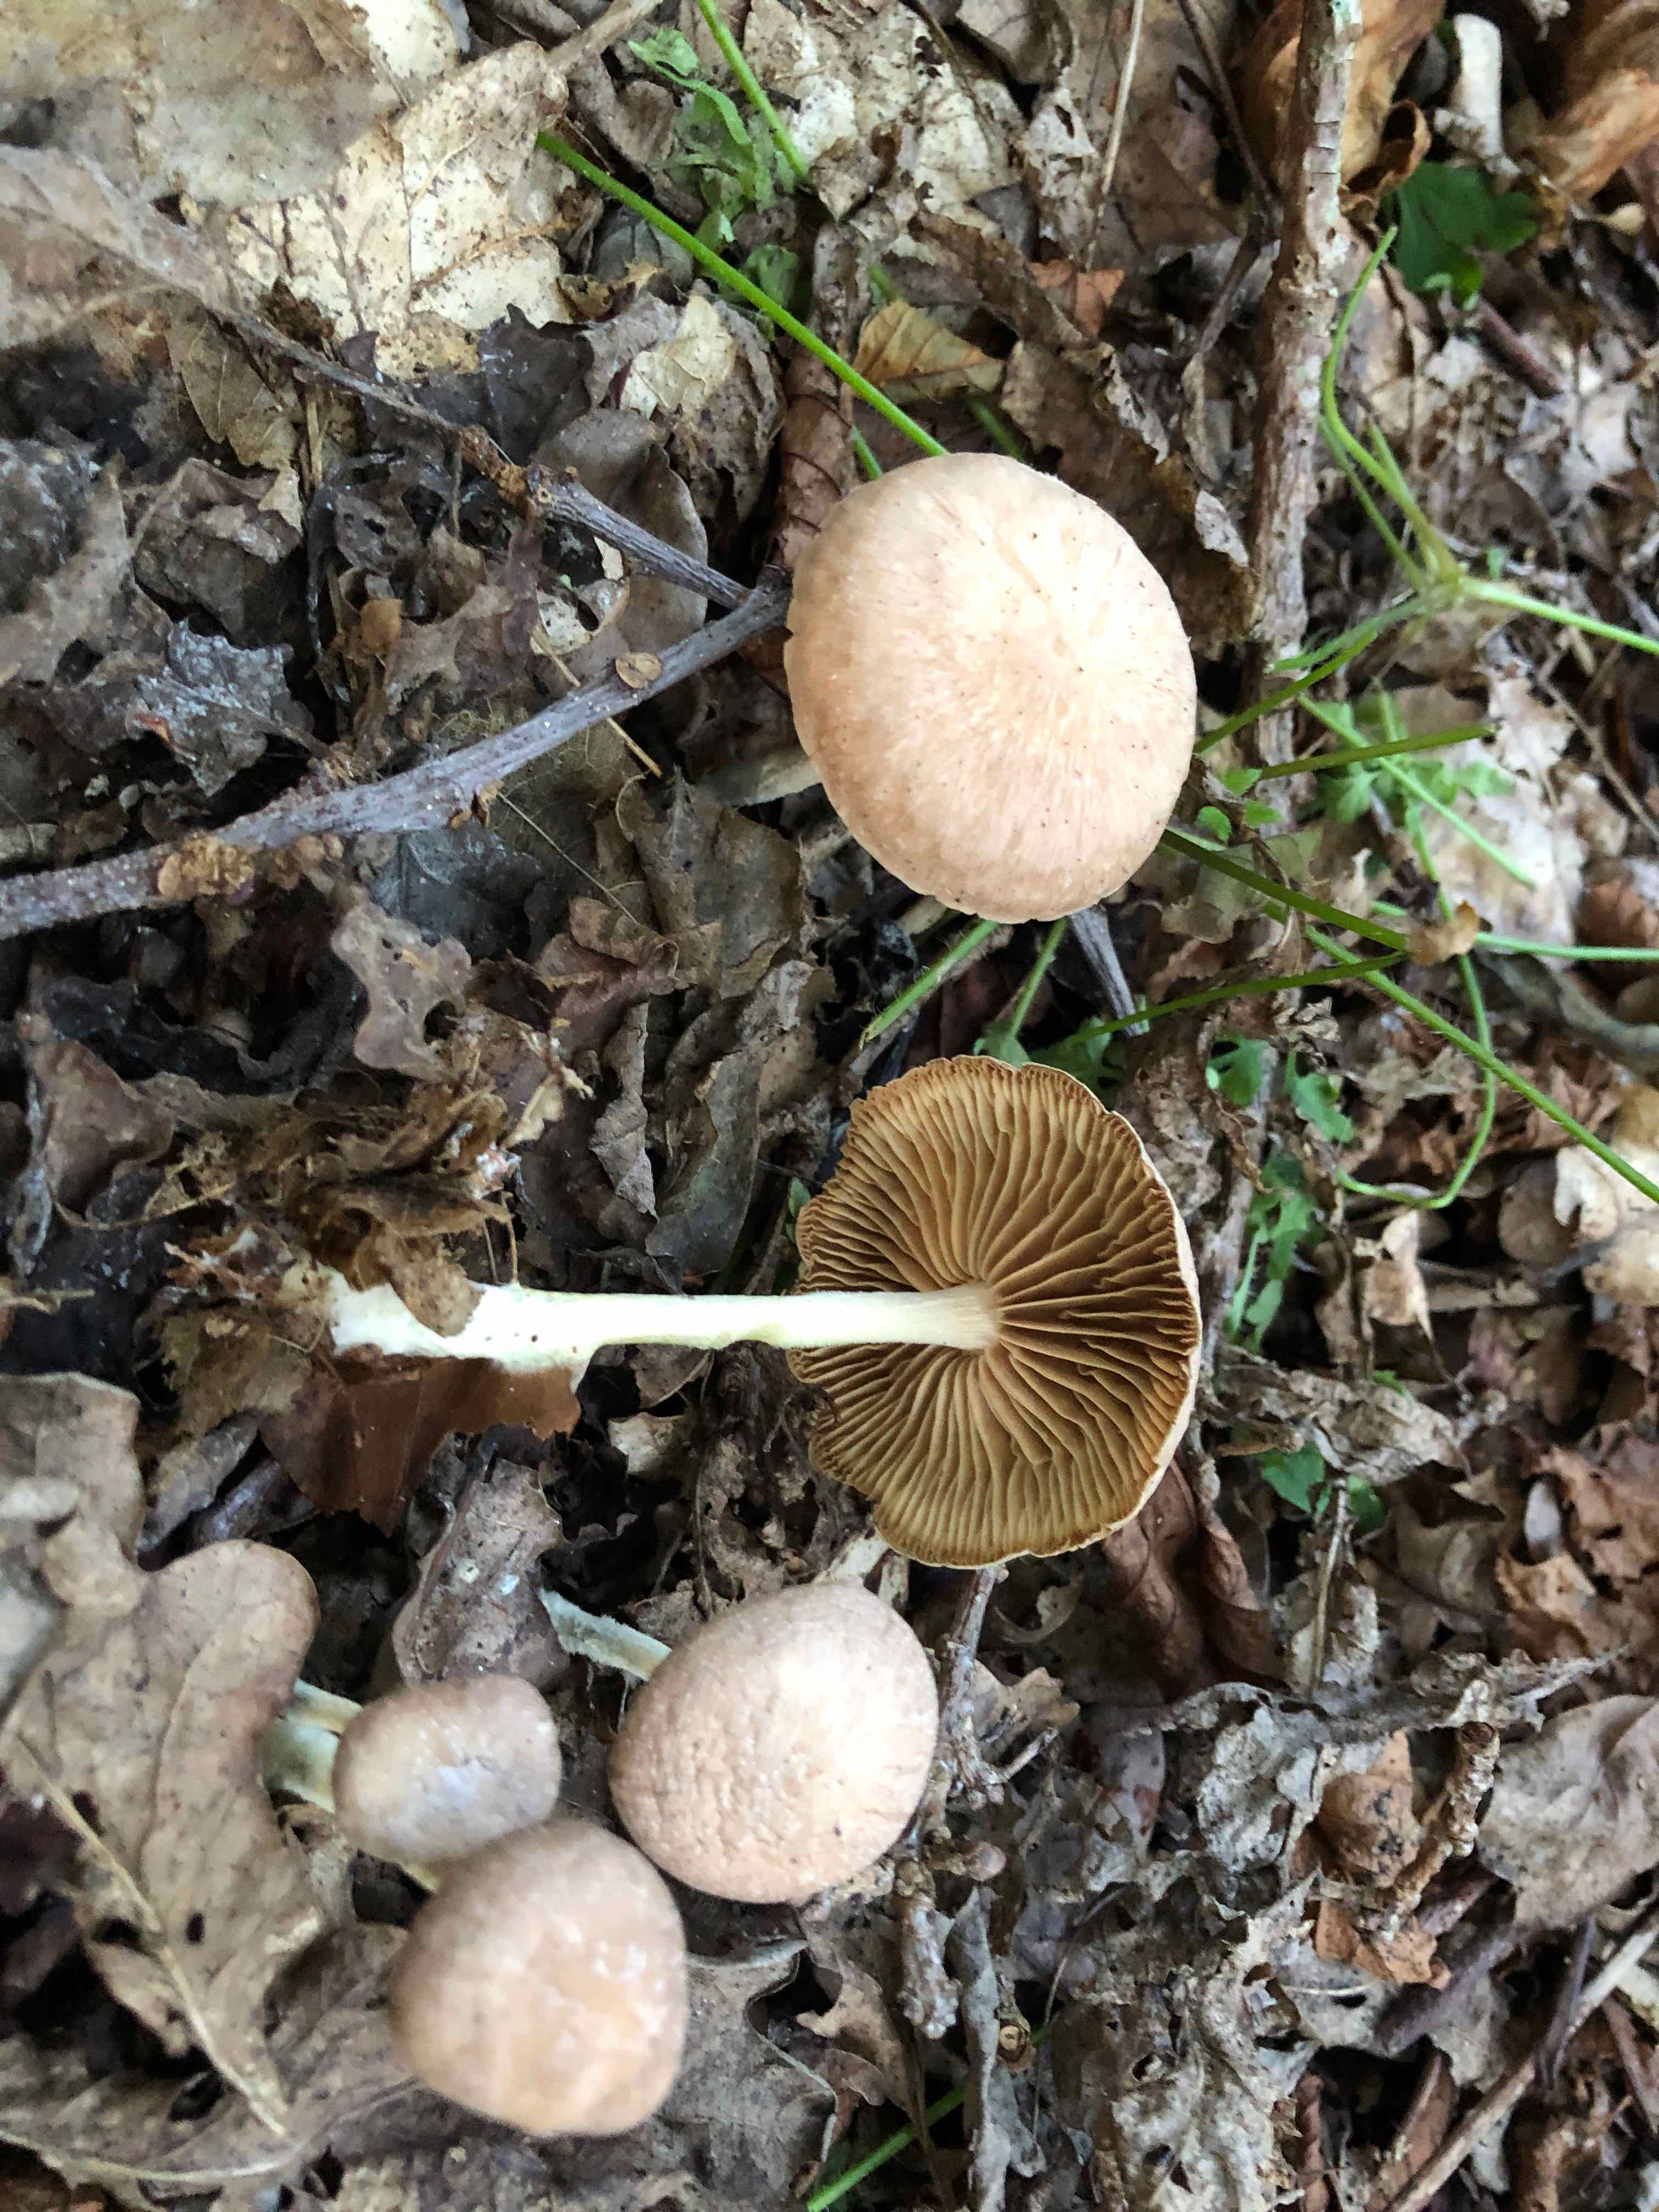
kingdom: Fungi
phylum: Basidiomycota
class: Agaricomycetes
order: Agaricales
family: Omphalotaceae
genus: Collybiopsis
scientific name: Collybiopsis peronata
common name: bestøvlet fladhat
